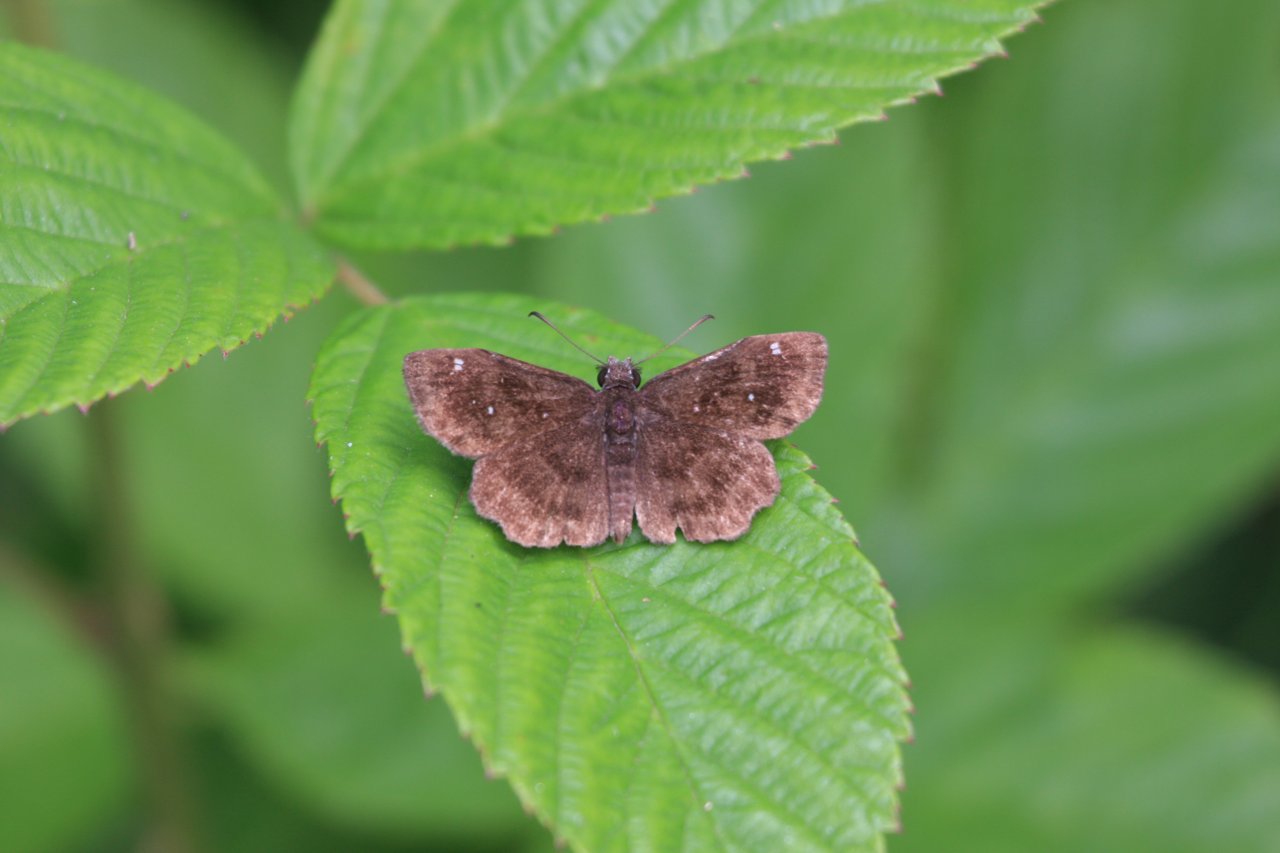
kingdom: Animalia
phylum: Arthropoda
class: Insecta
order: Lepidoptera
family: Hesperiidae
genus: Staphylus
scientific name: Staphylus mazans
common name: Hayhurst's Scallopwing
